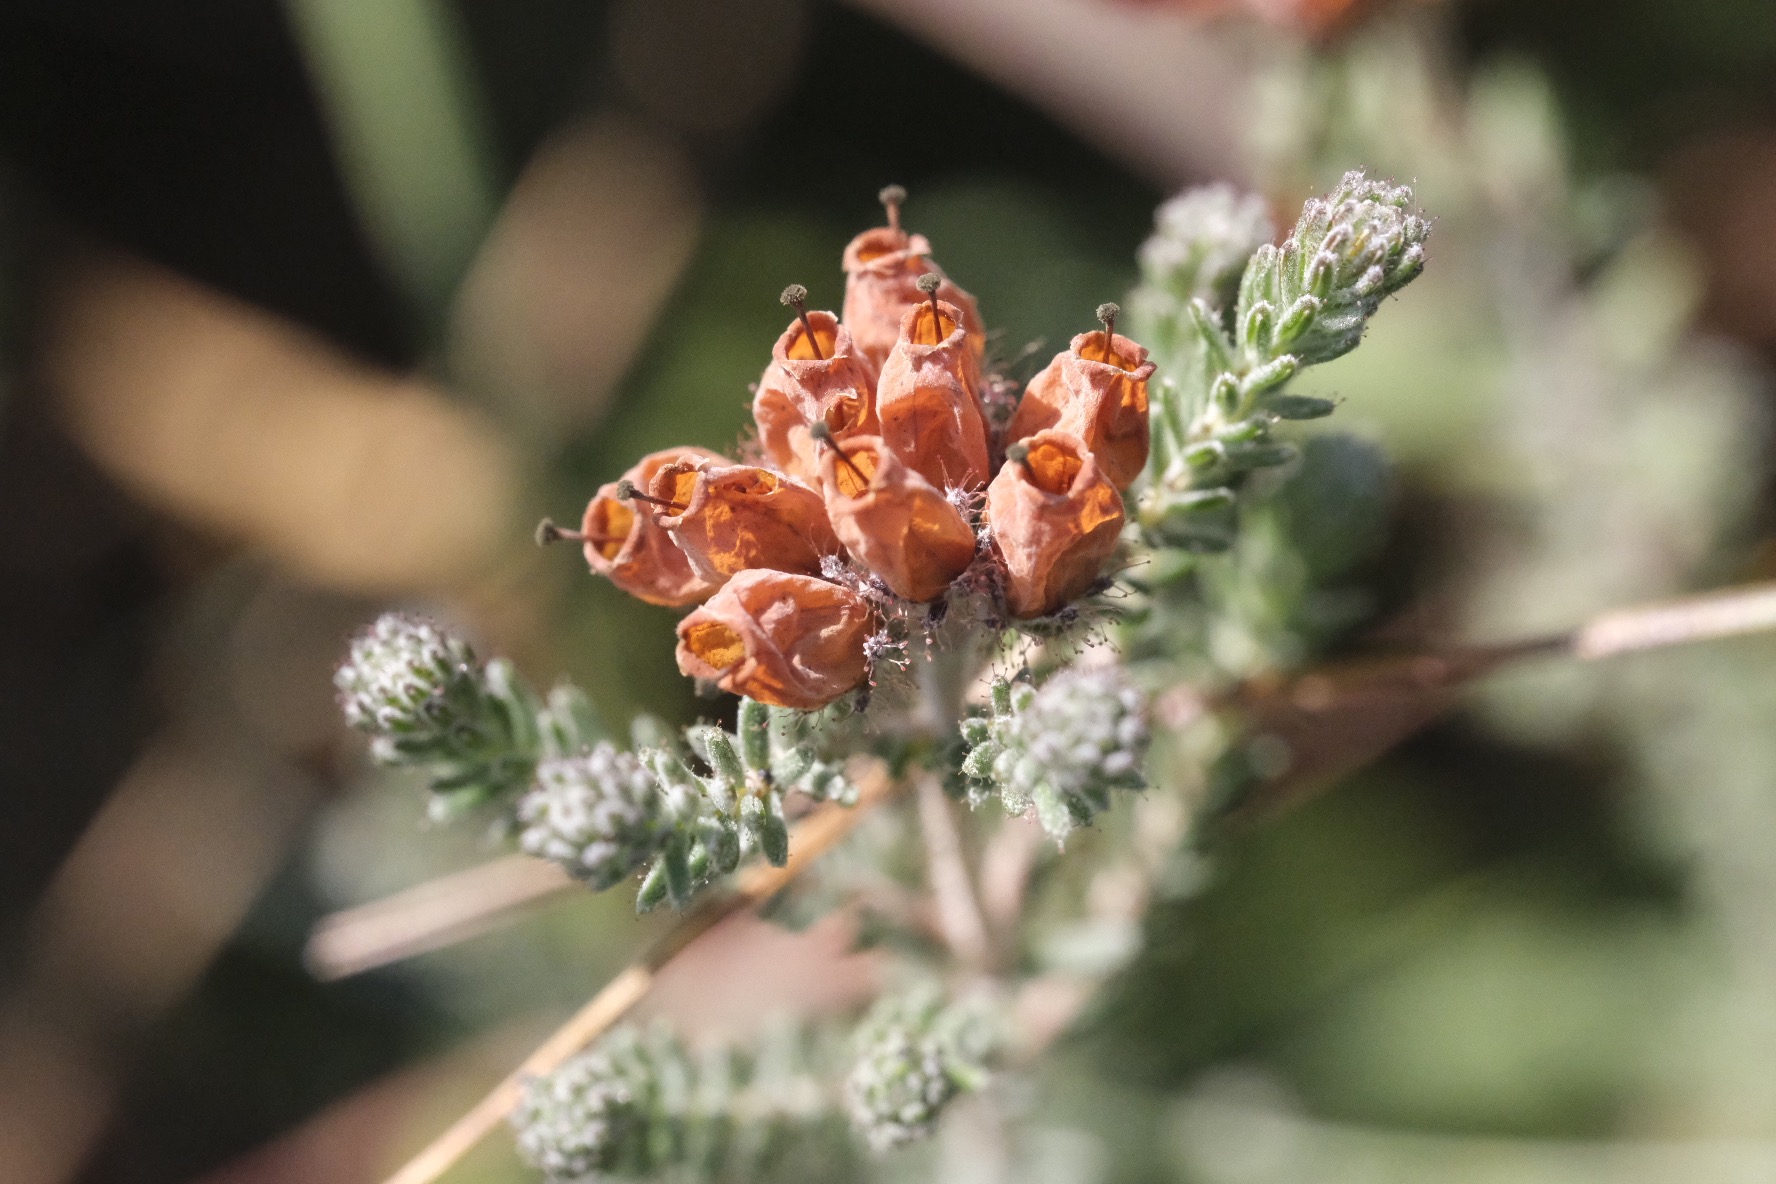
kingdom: Plantae
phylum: Tracheophyta
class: Magnoliopsida
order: Ericales
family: Ericaceae
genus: Erica
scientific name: Erica tetralix
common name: Klokkelyng
